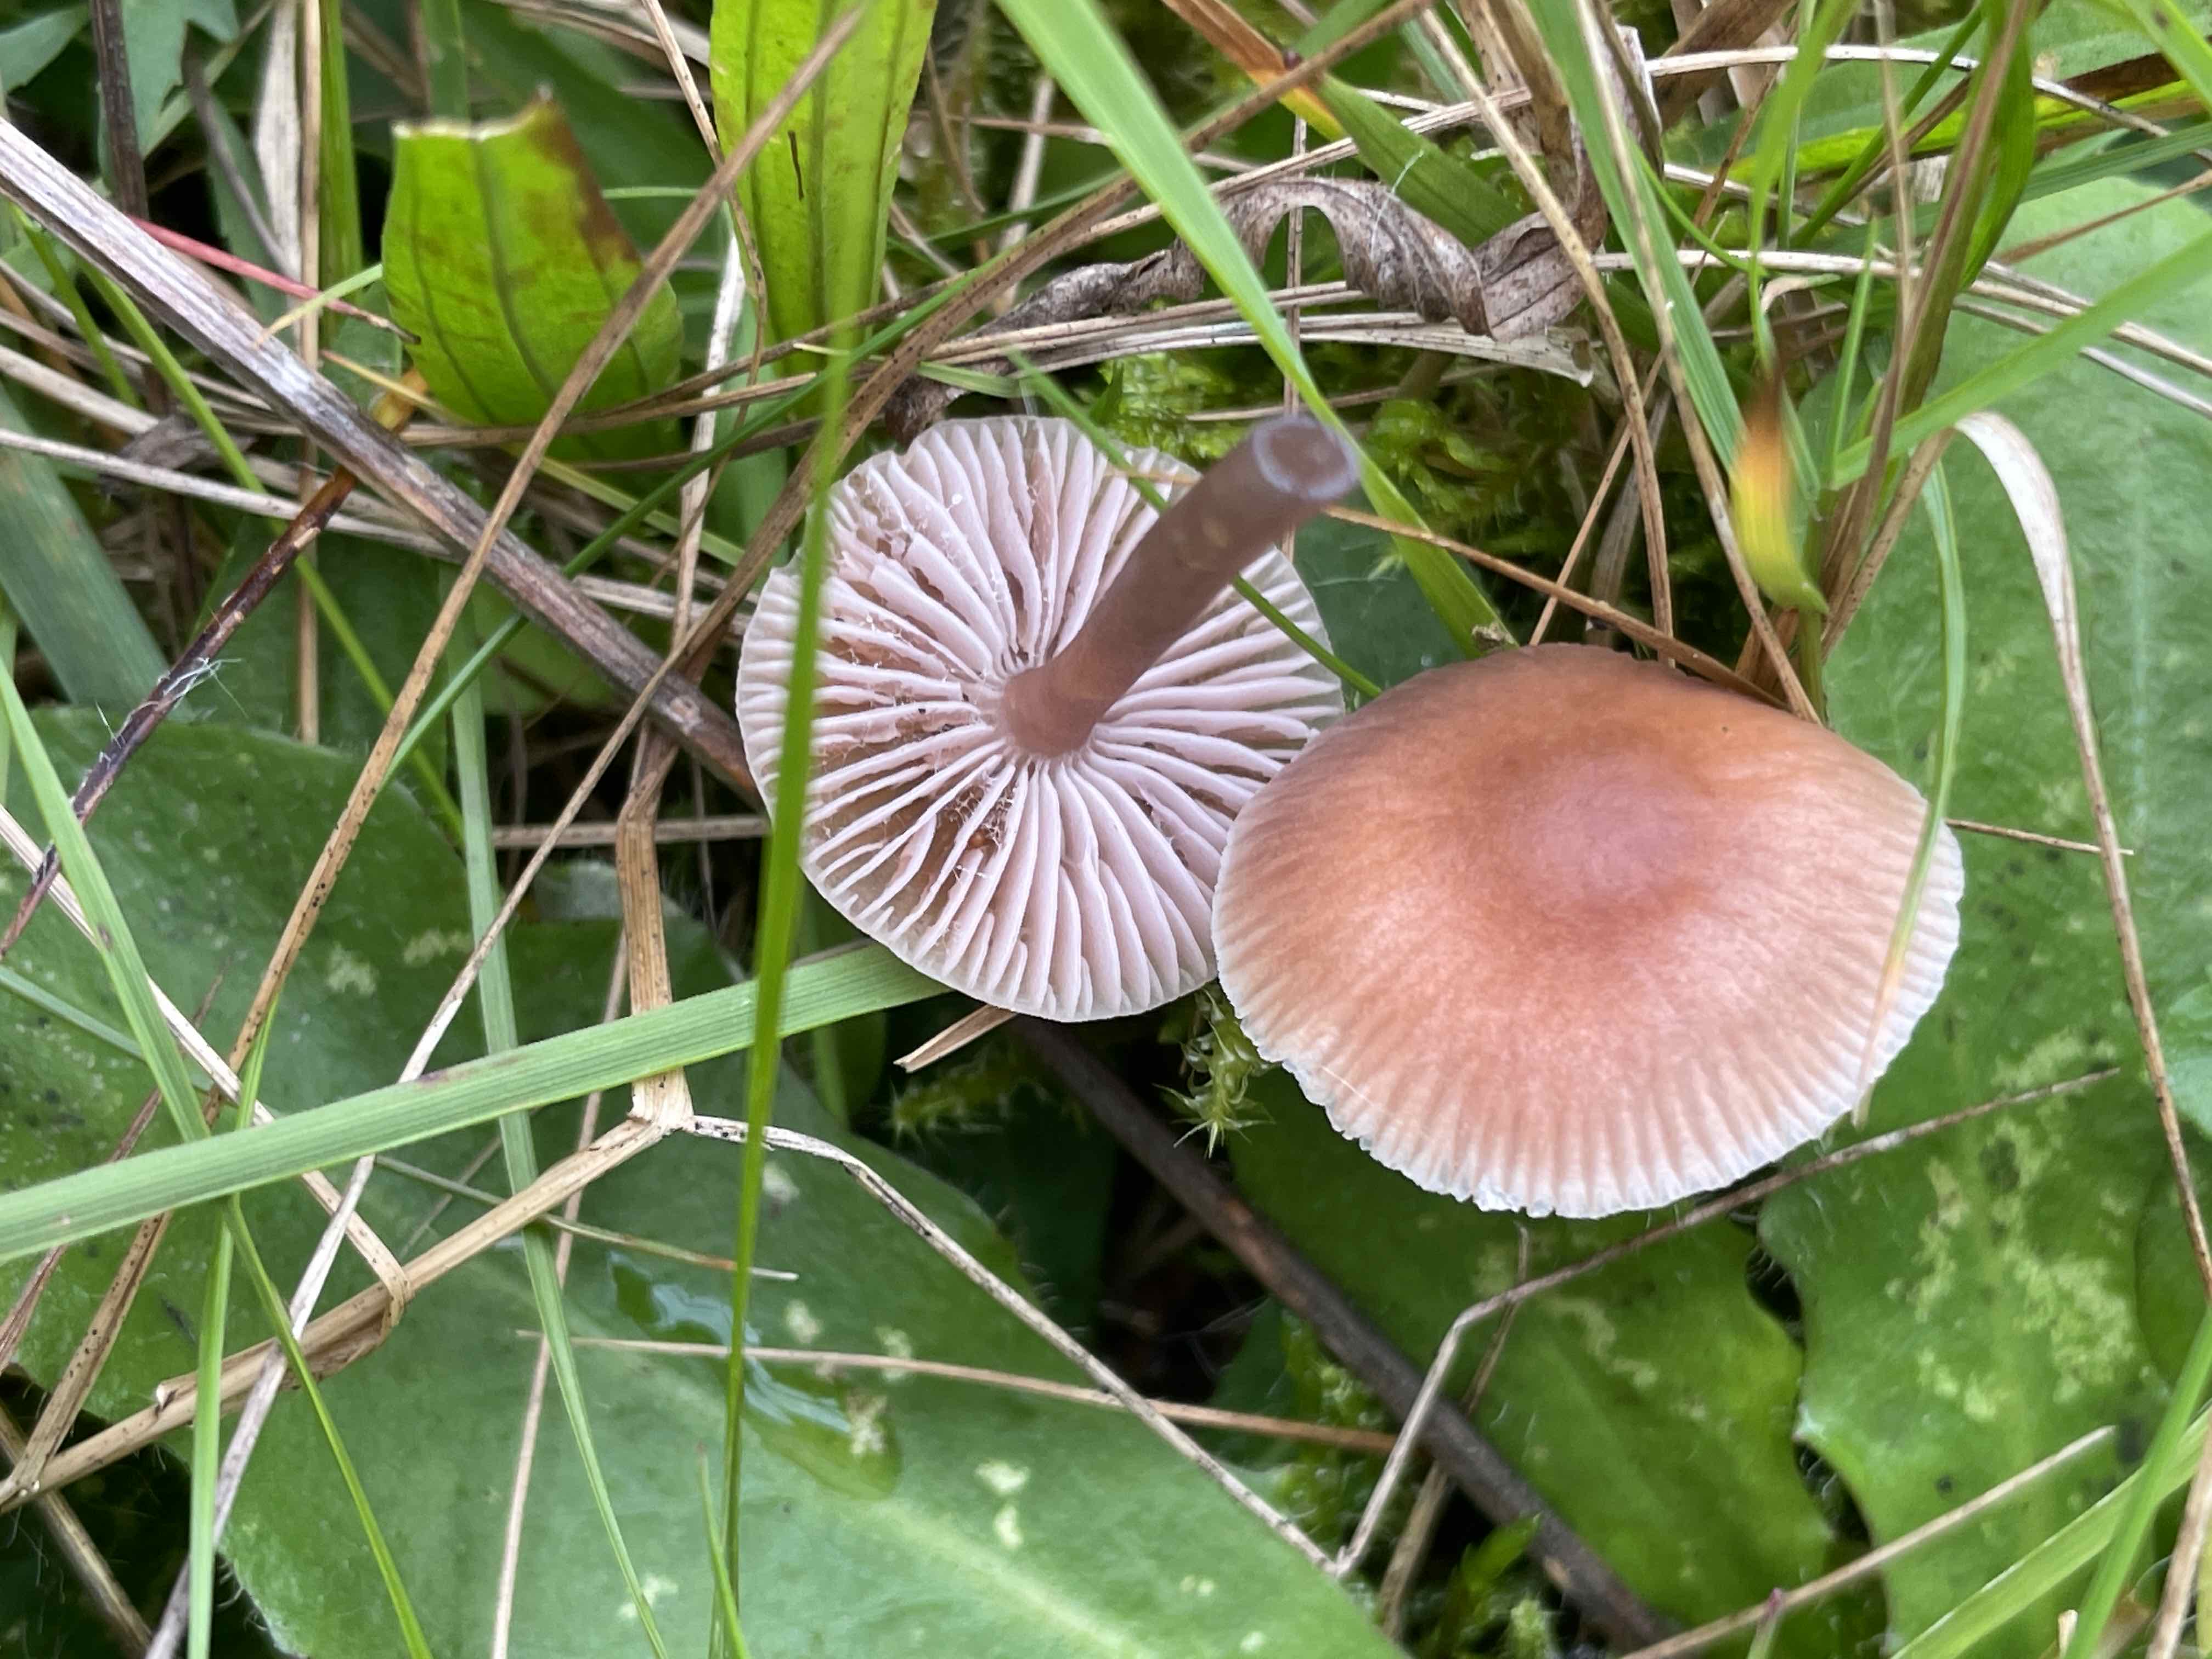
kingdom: Fungi
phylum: Basidiomycota
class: Agaricomycetes
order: Agaricales
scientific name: Agaricales
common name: champignonordenen
